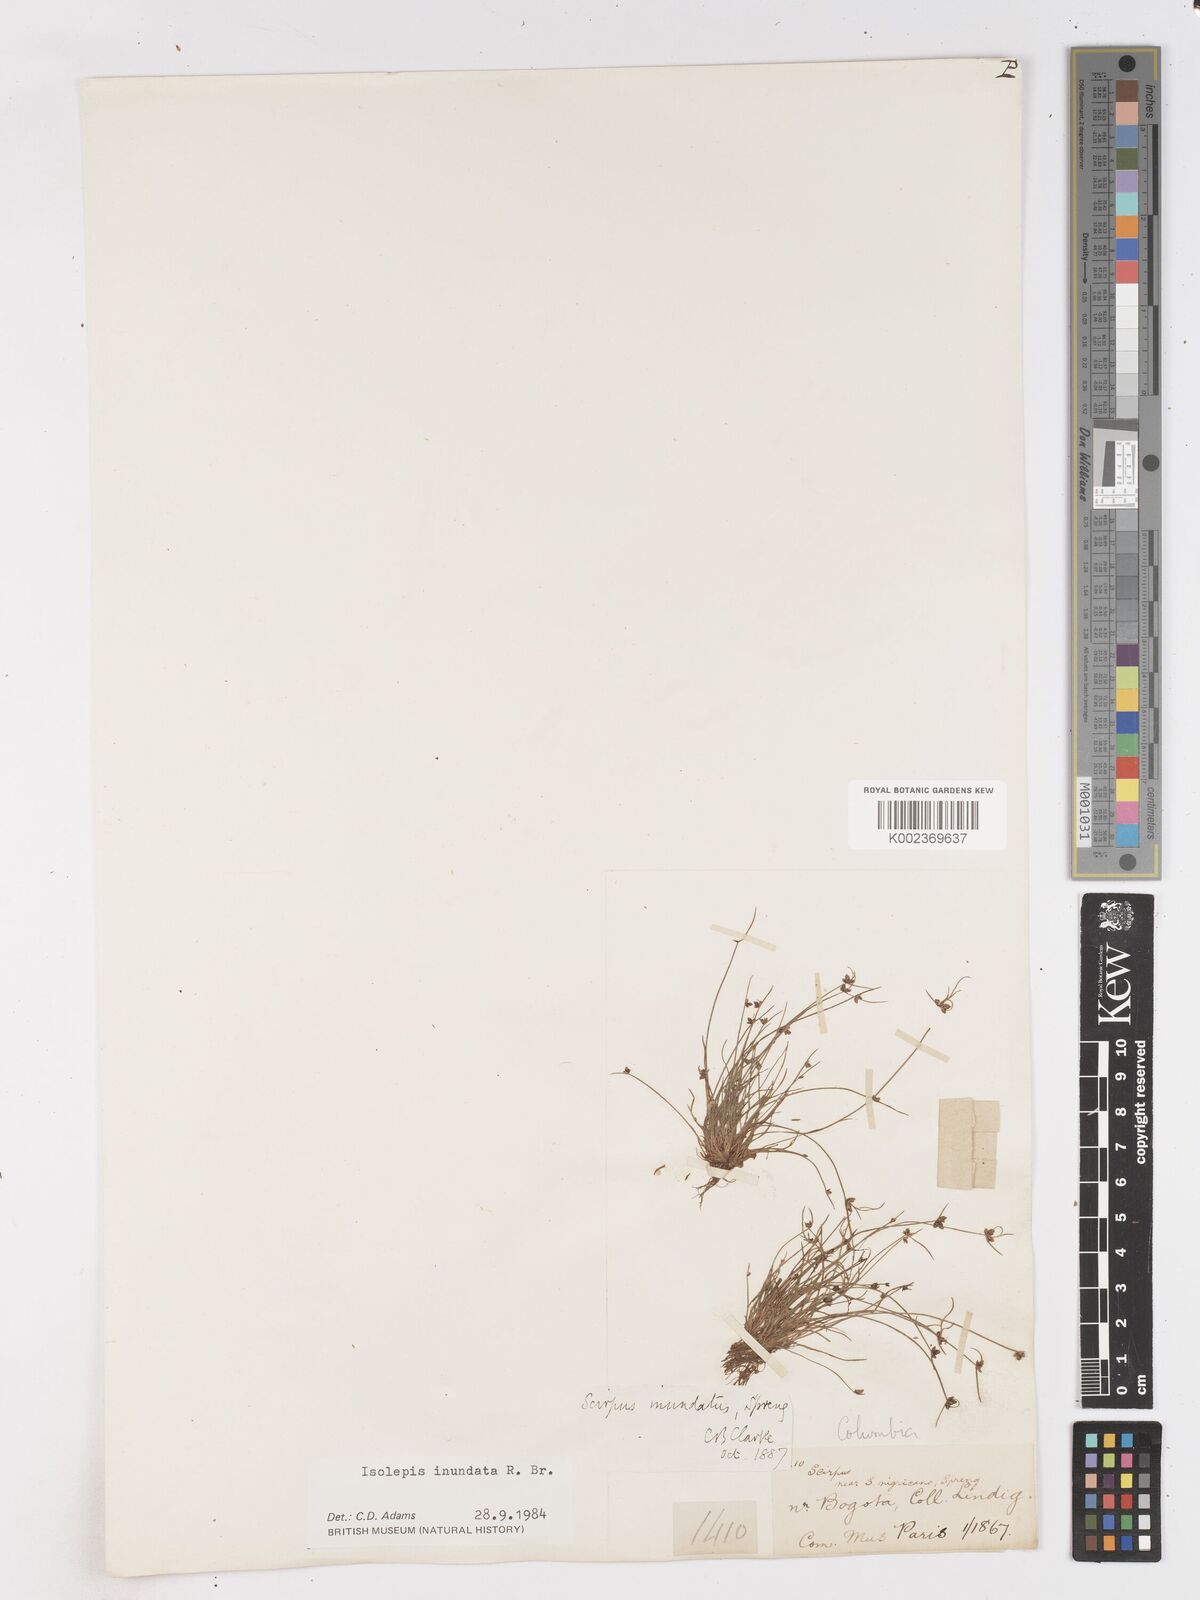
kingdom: Plantae
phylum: Tracheophyta
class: Liliopsida
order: Poales
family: Cyperaceae
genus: Isolepis
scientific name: Isolepis inundata
